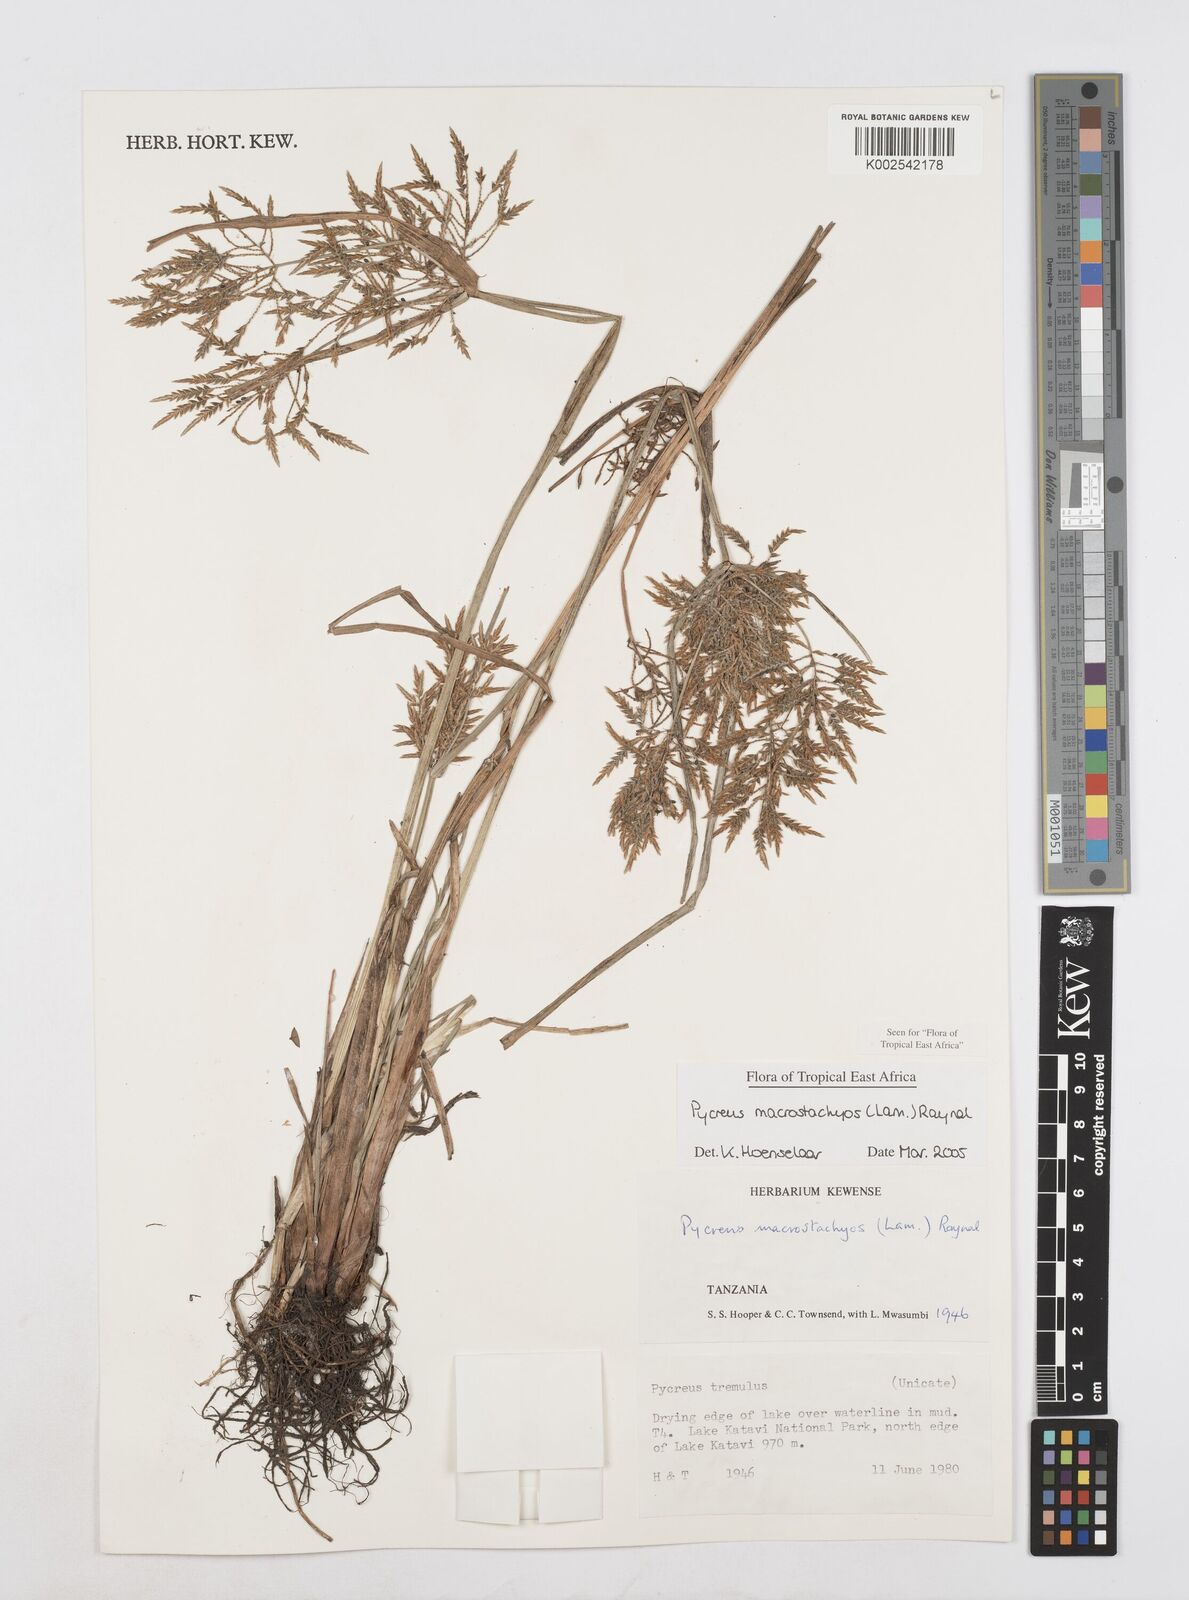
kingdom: Plantae
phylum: Tracheophyta
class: Liliopsida
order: Poales
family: Cyperaceae
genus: Cyperus
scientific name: Cyperus macrostachyos
